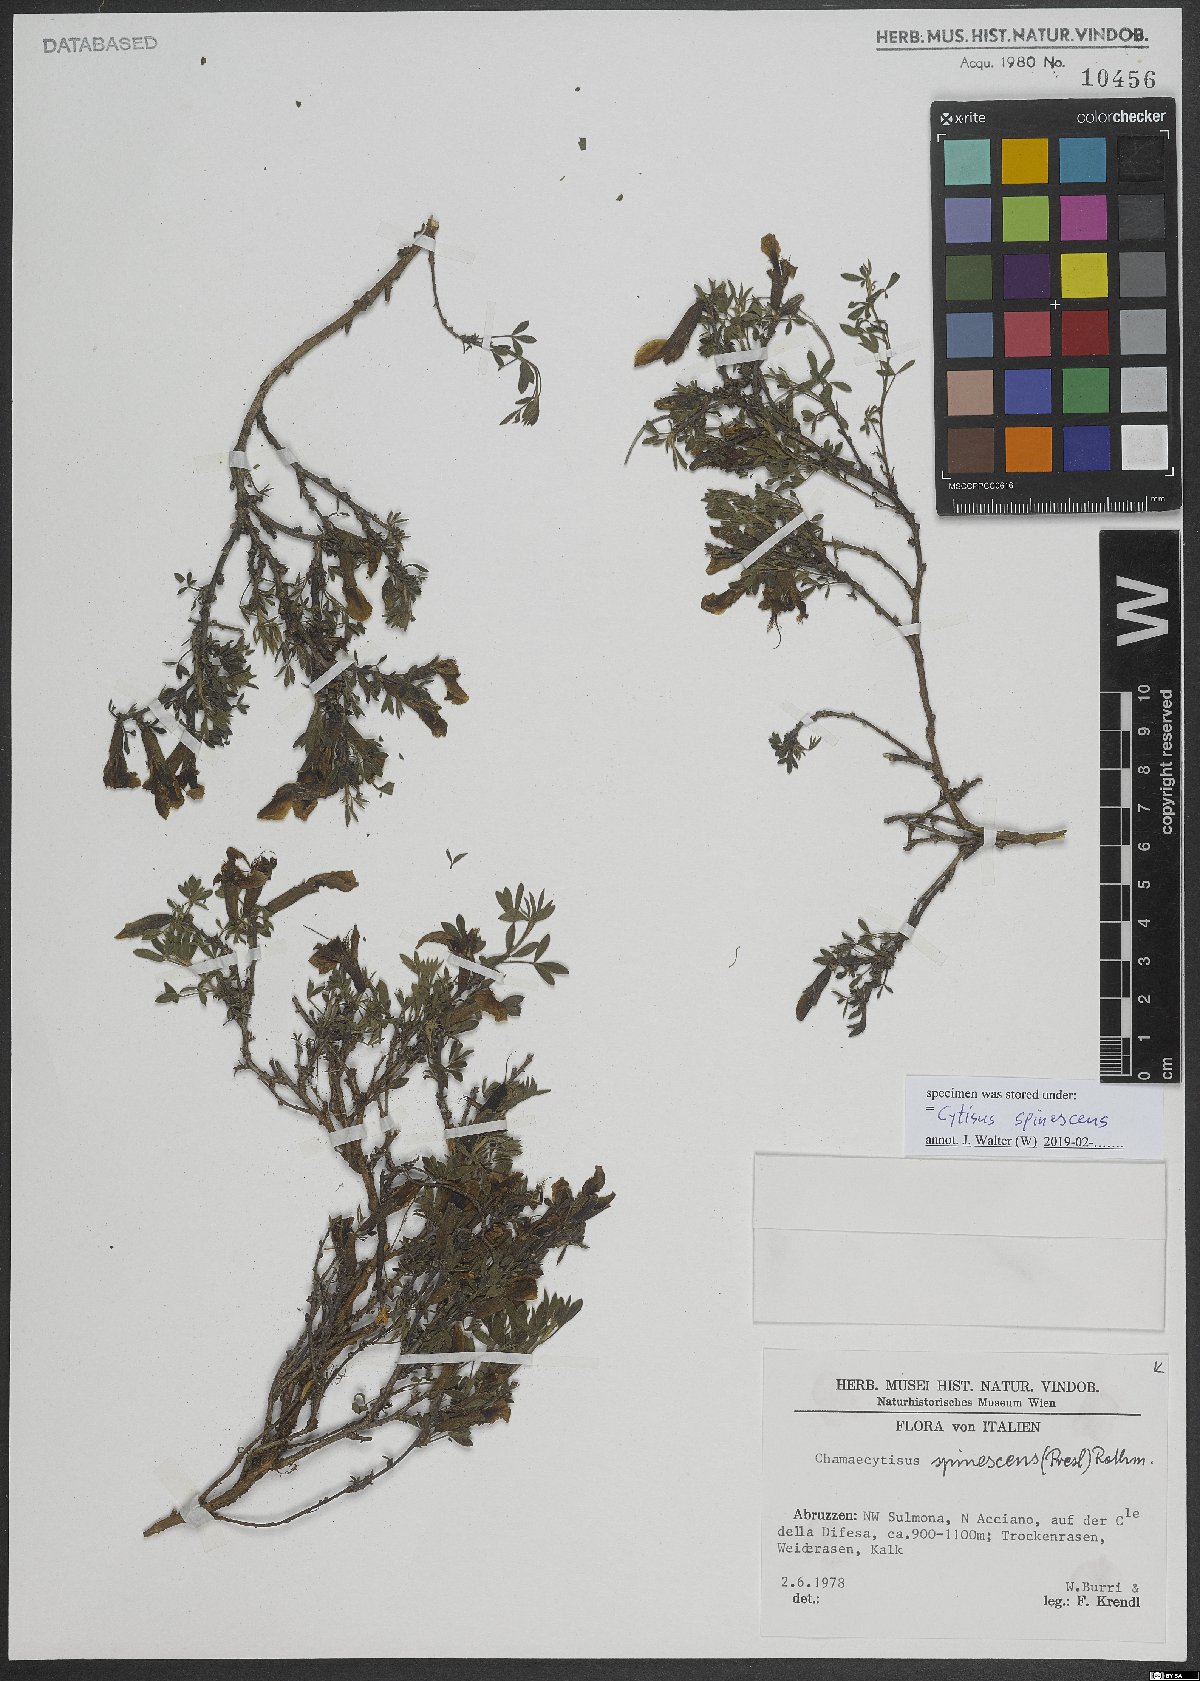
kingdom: Plantae
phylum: Tracheophyta
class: Magnoliopsida
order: Fabales
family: Fabaceae
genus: Chamaecytisus
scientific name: Chamaecytisus spinescens
